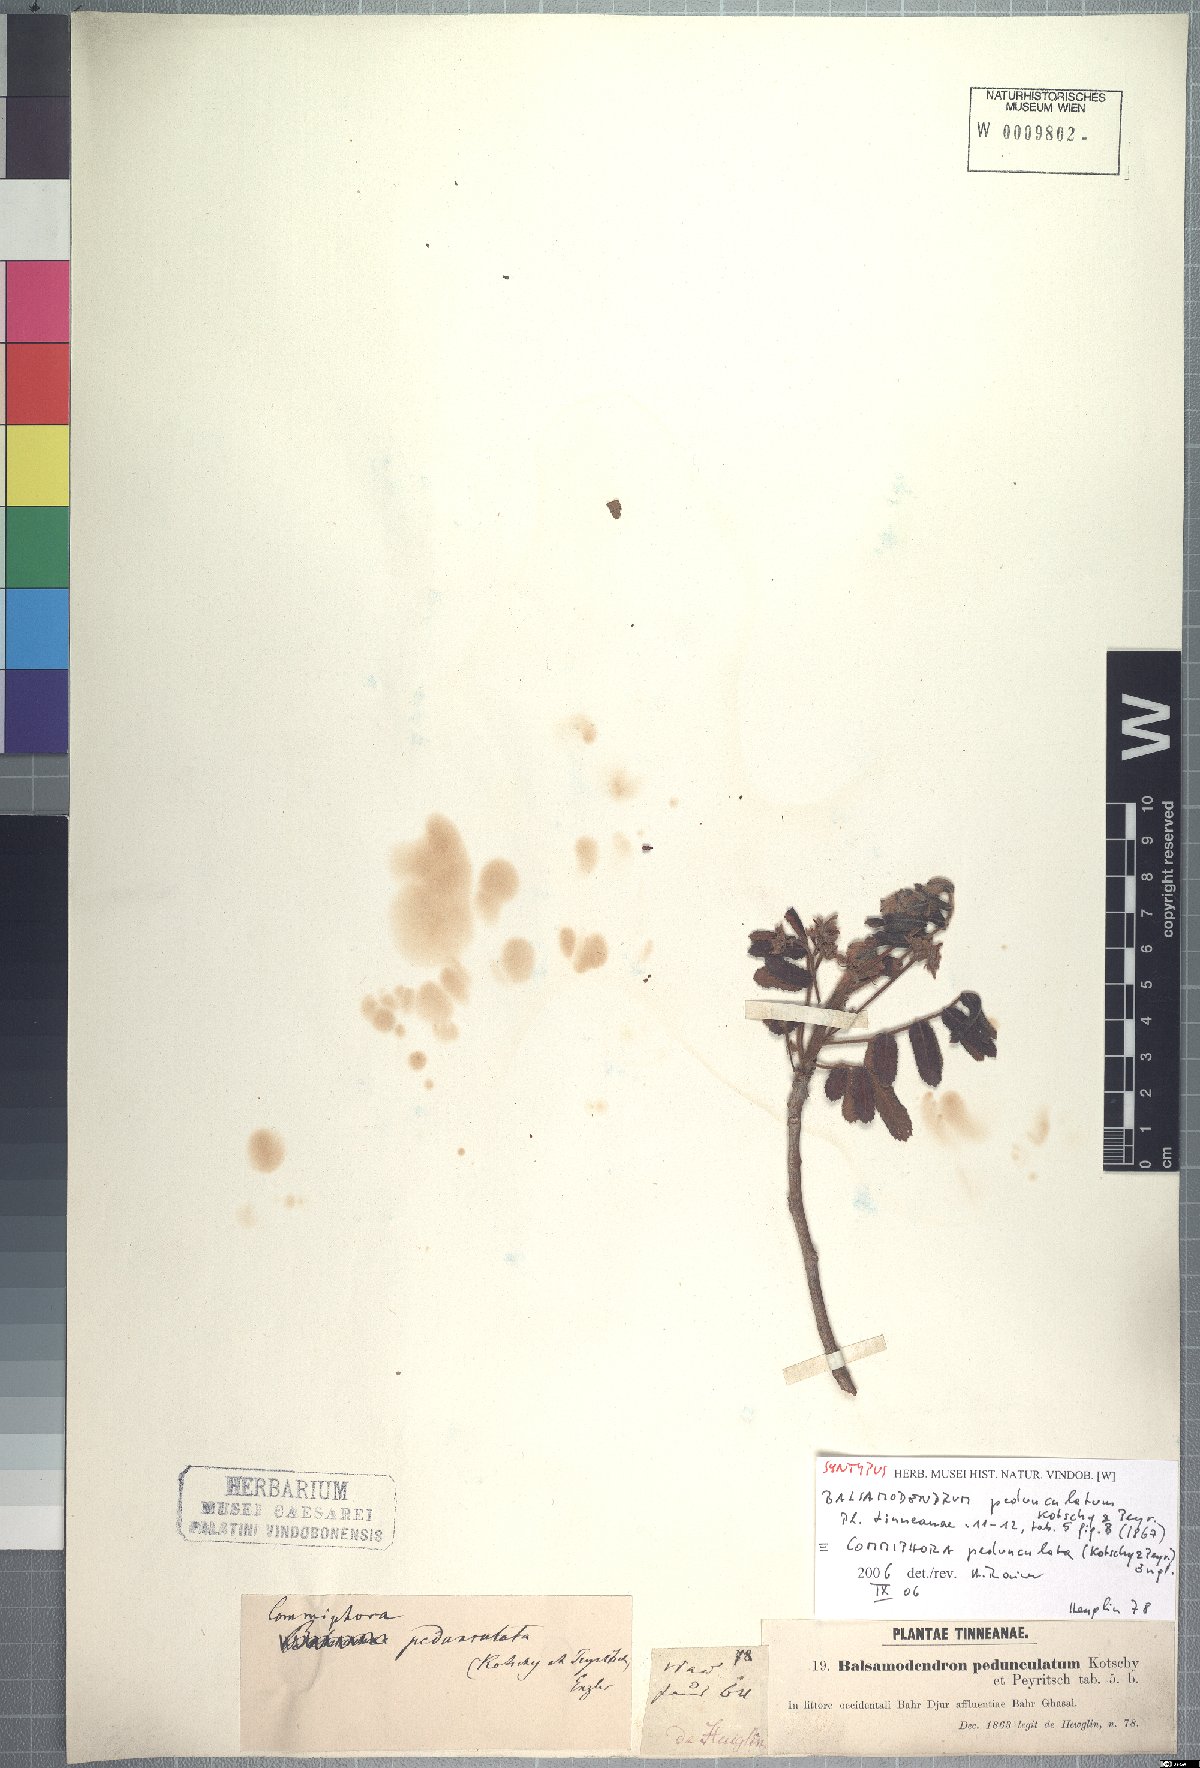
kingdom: Plantae
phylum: Tracheophyta
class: Magnoliopsida
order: Sapindales
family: Burseraceae
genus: Commiphora
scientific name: Commiphora pedunculata
